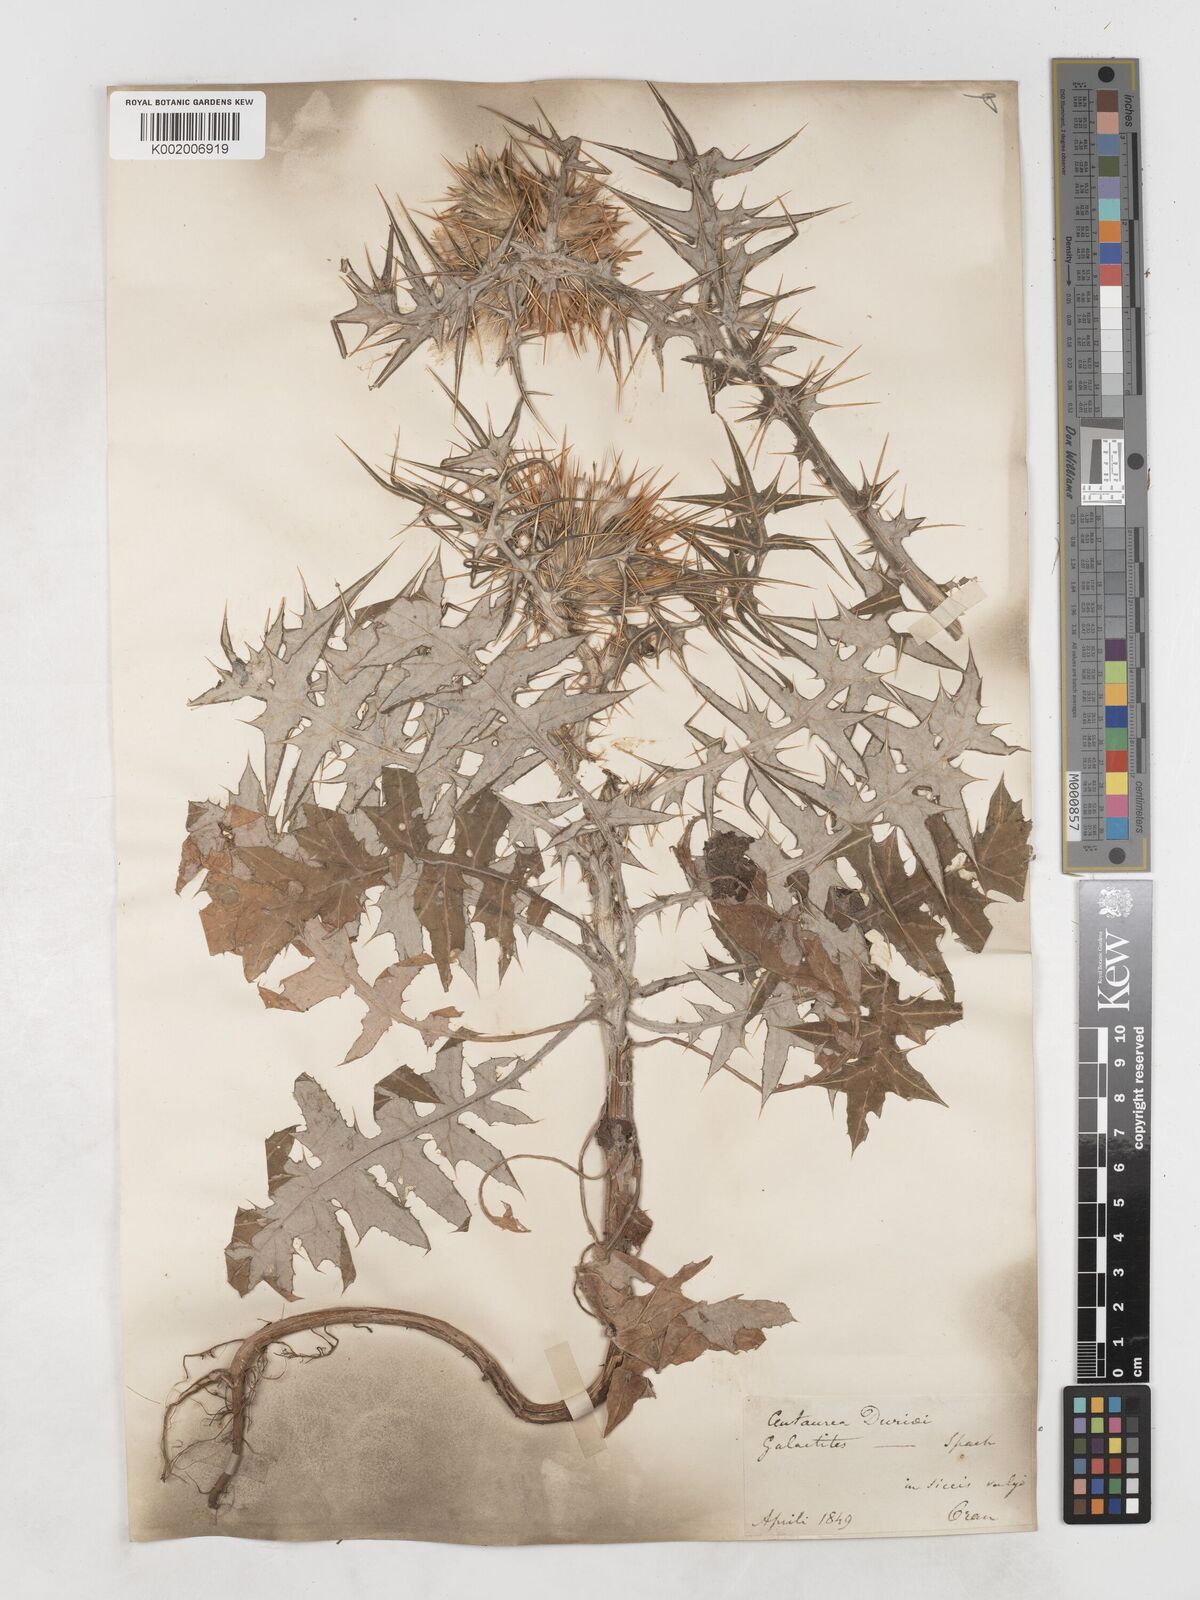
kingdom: Plantae
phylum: Tracheophyta
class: Magnoliopsida
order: Asterales
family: Asteraceae
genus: Galactites
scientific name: Galactites duriaei
